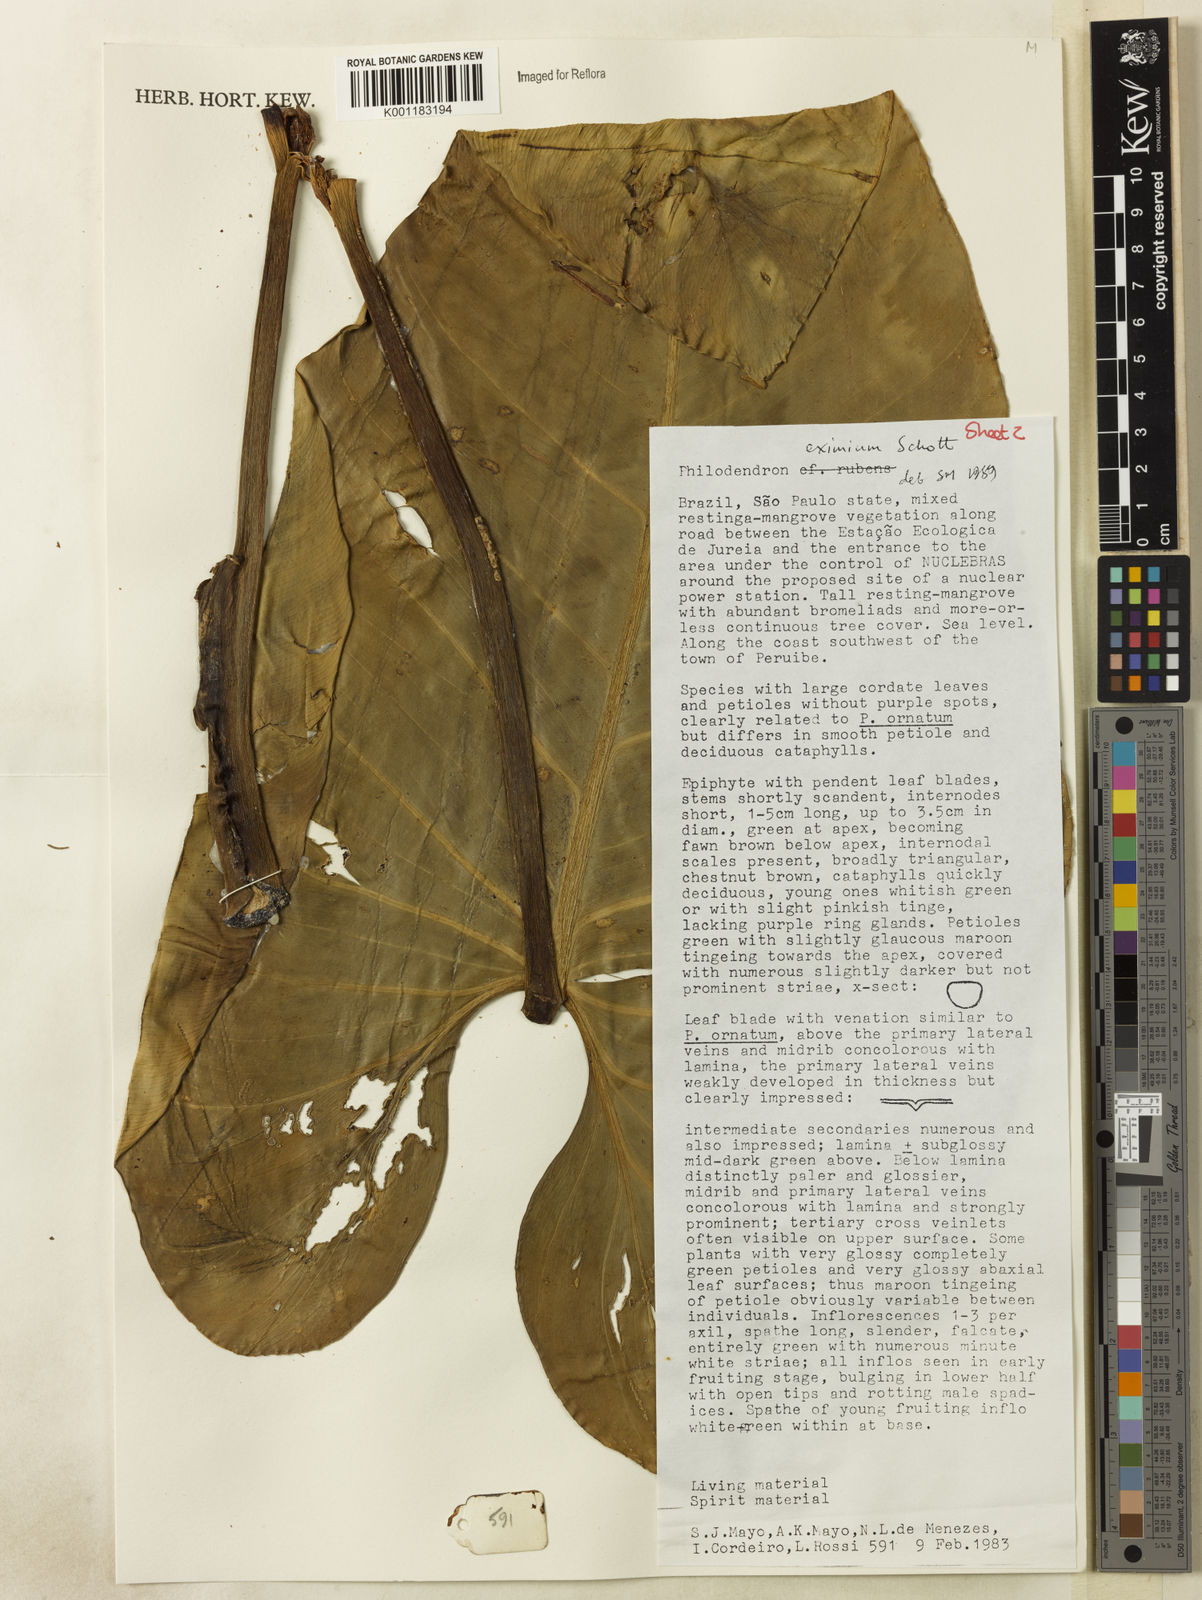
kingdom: Plantae
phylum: Tracheophyta
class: Liliopsida
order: Alismatales
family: Araceae
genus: Philodendron
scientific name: Philodendron eximium
